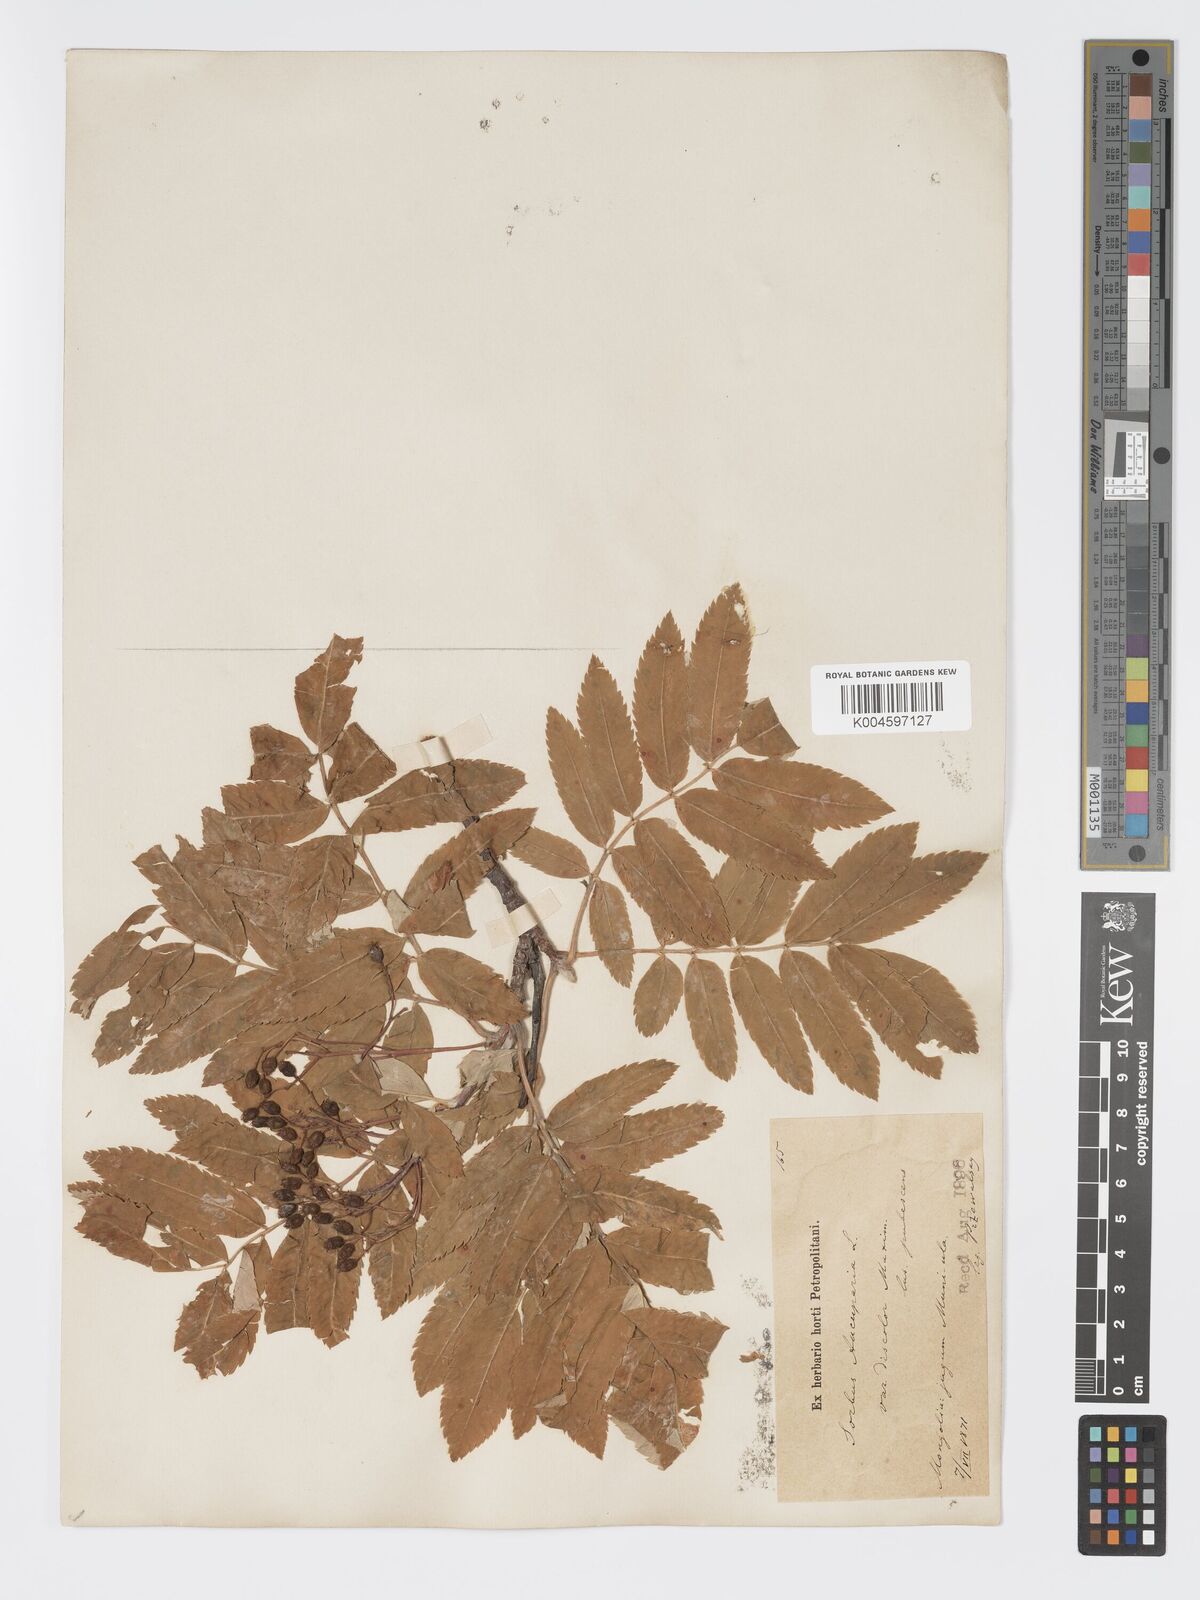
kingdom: Plantae
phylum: Tracheophyta
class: Magnoliopsida
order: Rosales
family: Rosaceae
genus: Sorbus
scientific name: Sorbus aucuparia
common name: Rowan
